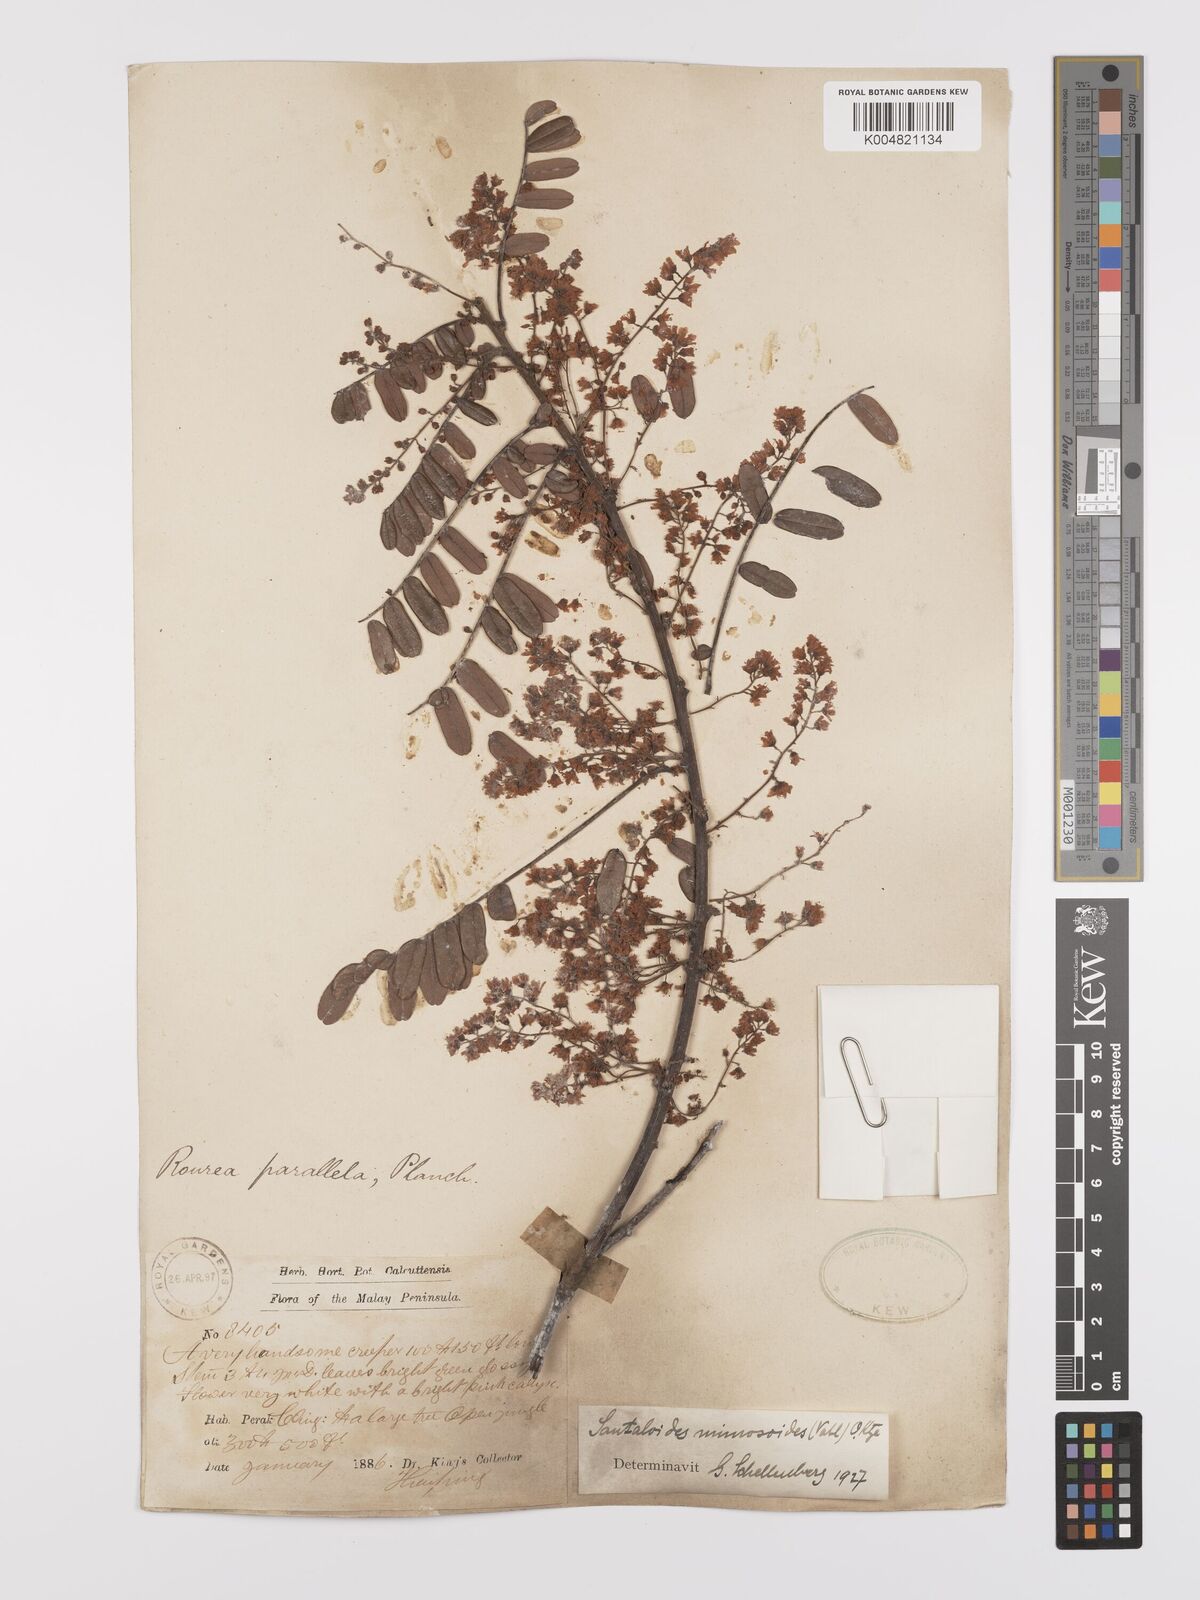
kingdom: Plantae
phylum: Tracheophyta
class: Magnoliopsida
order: Oxalidales
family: Connaraceae
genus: Rourea
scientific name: Rourea mimosoides
